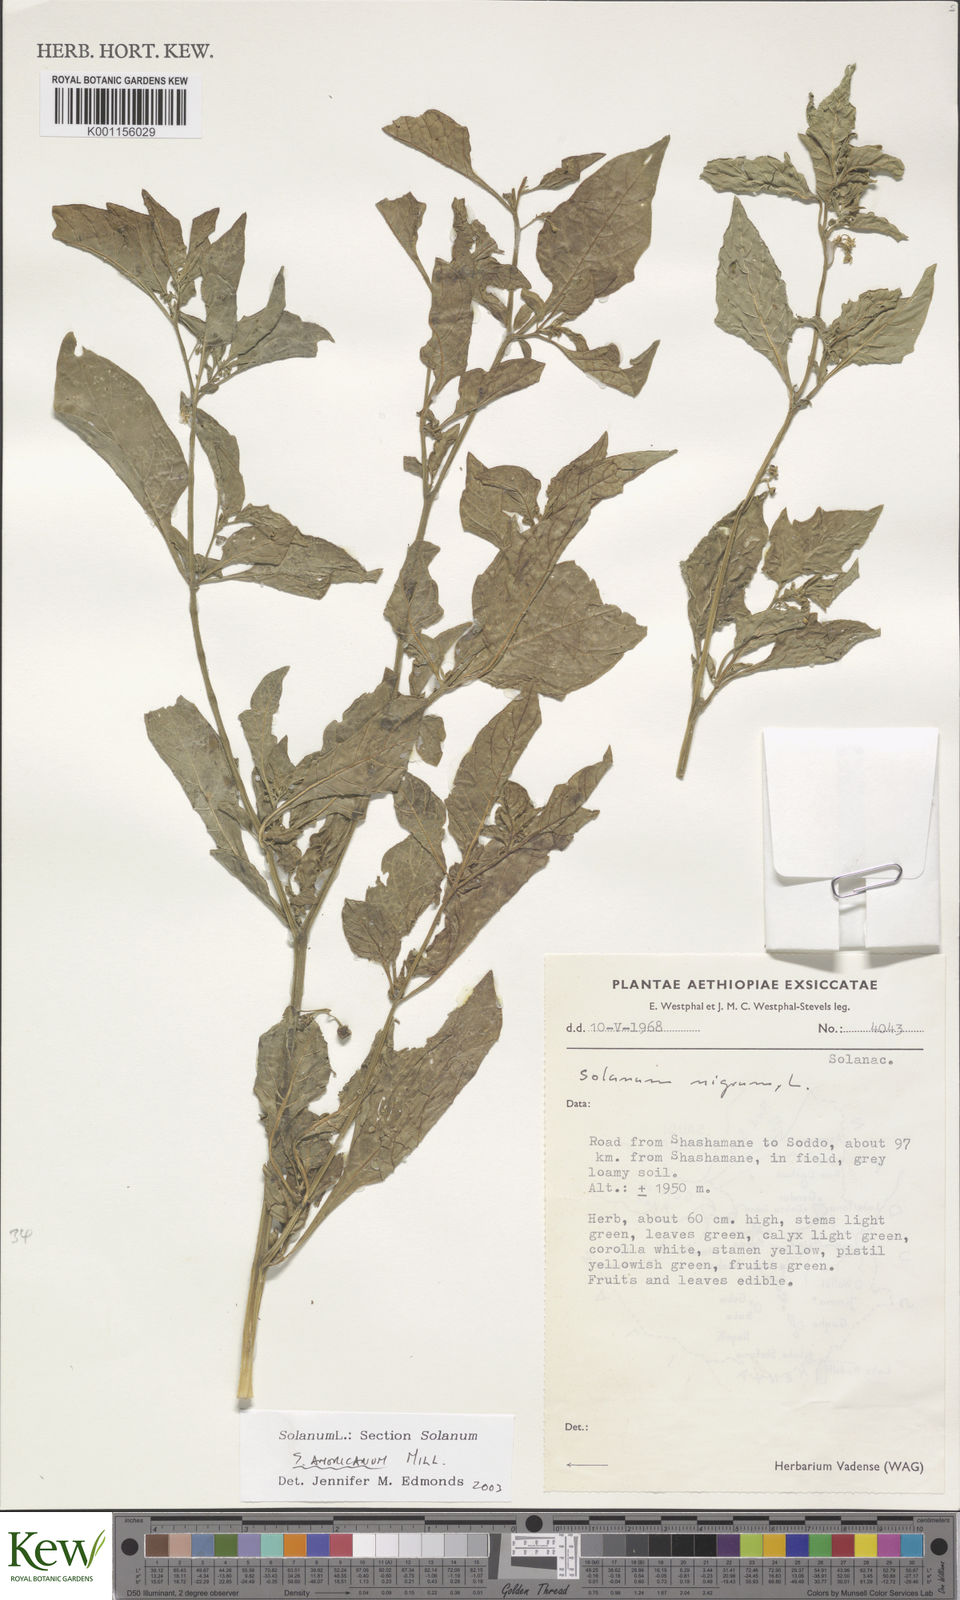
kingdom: Plantae
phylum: Tracheophyta
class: Magnoliopsida
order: Solanales
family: Solanaceae
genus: Solanum
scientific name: Solanum tarderemotum
